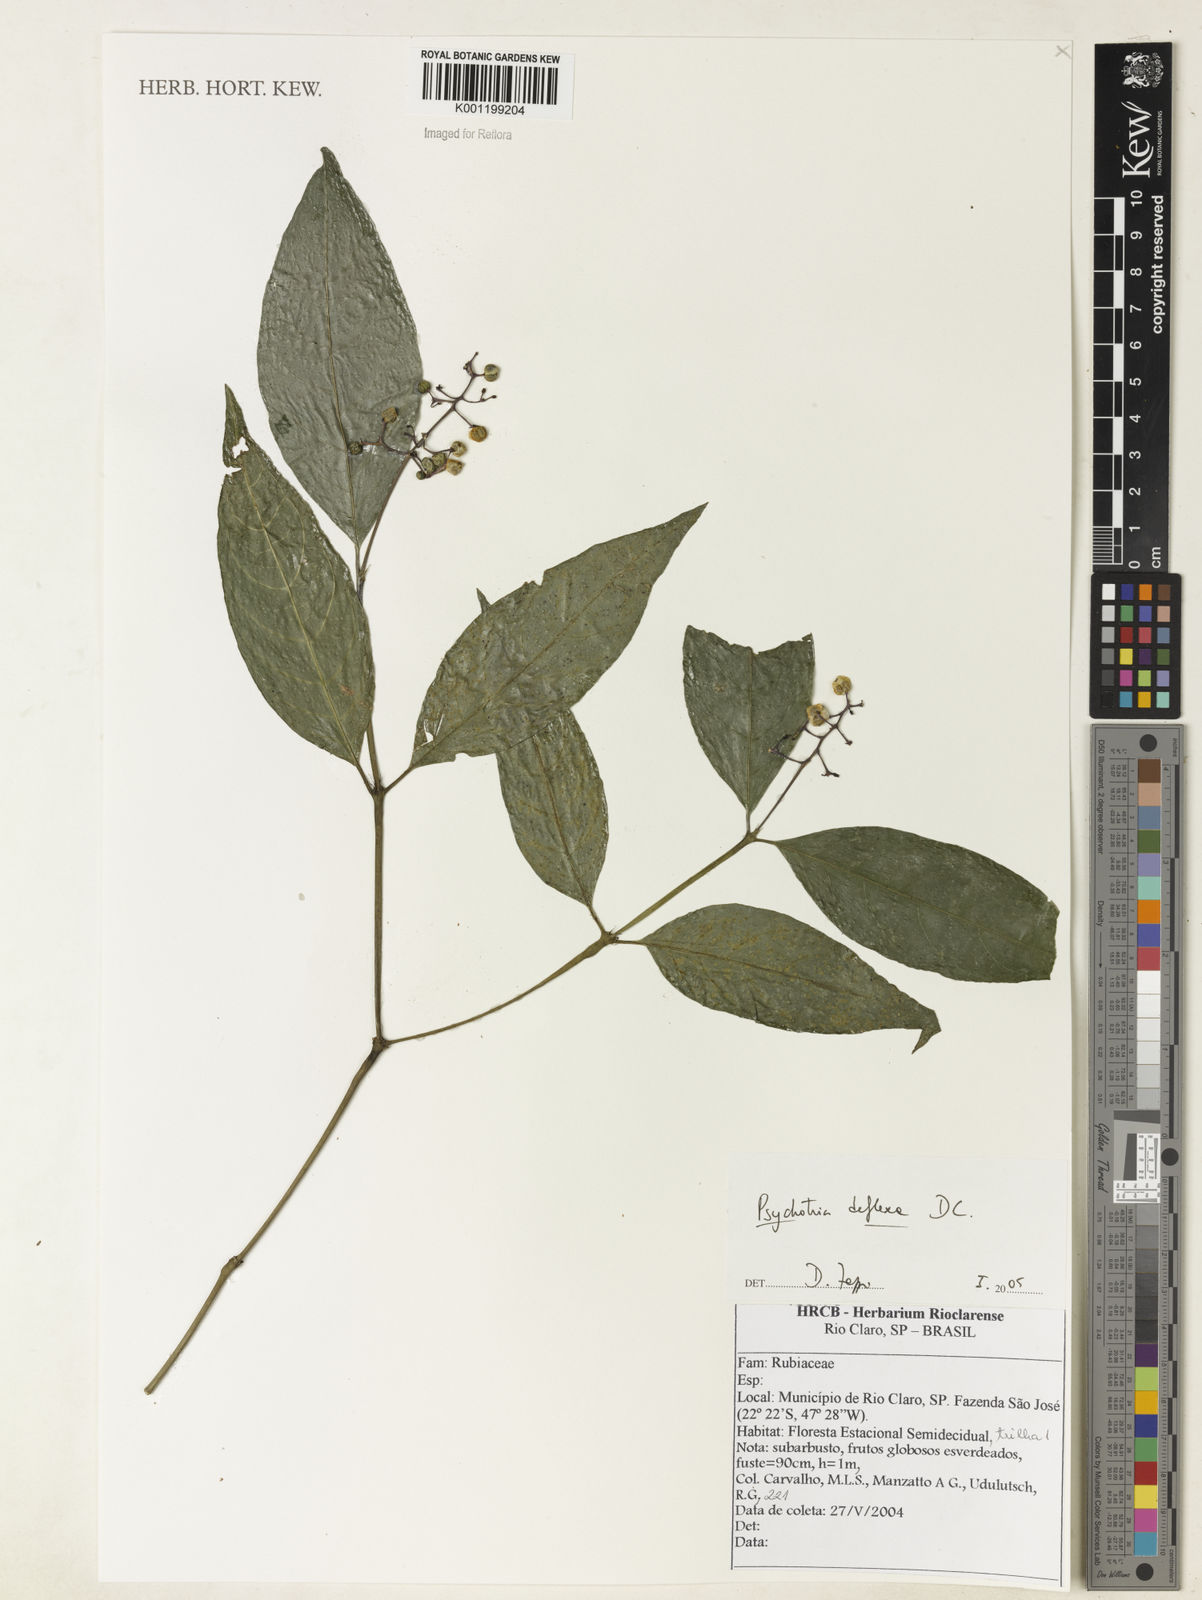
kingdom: Plantae
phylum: Tracheophyta
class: Magnoliopsida
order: Gentianales
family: Rubiaceae
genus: Palicourea
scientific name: Palicourea deflexa
